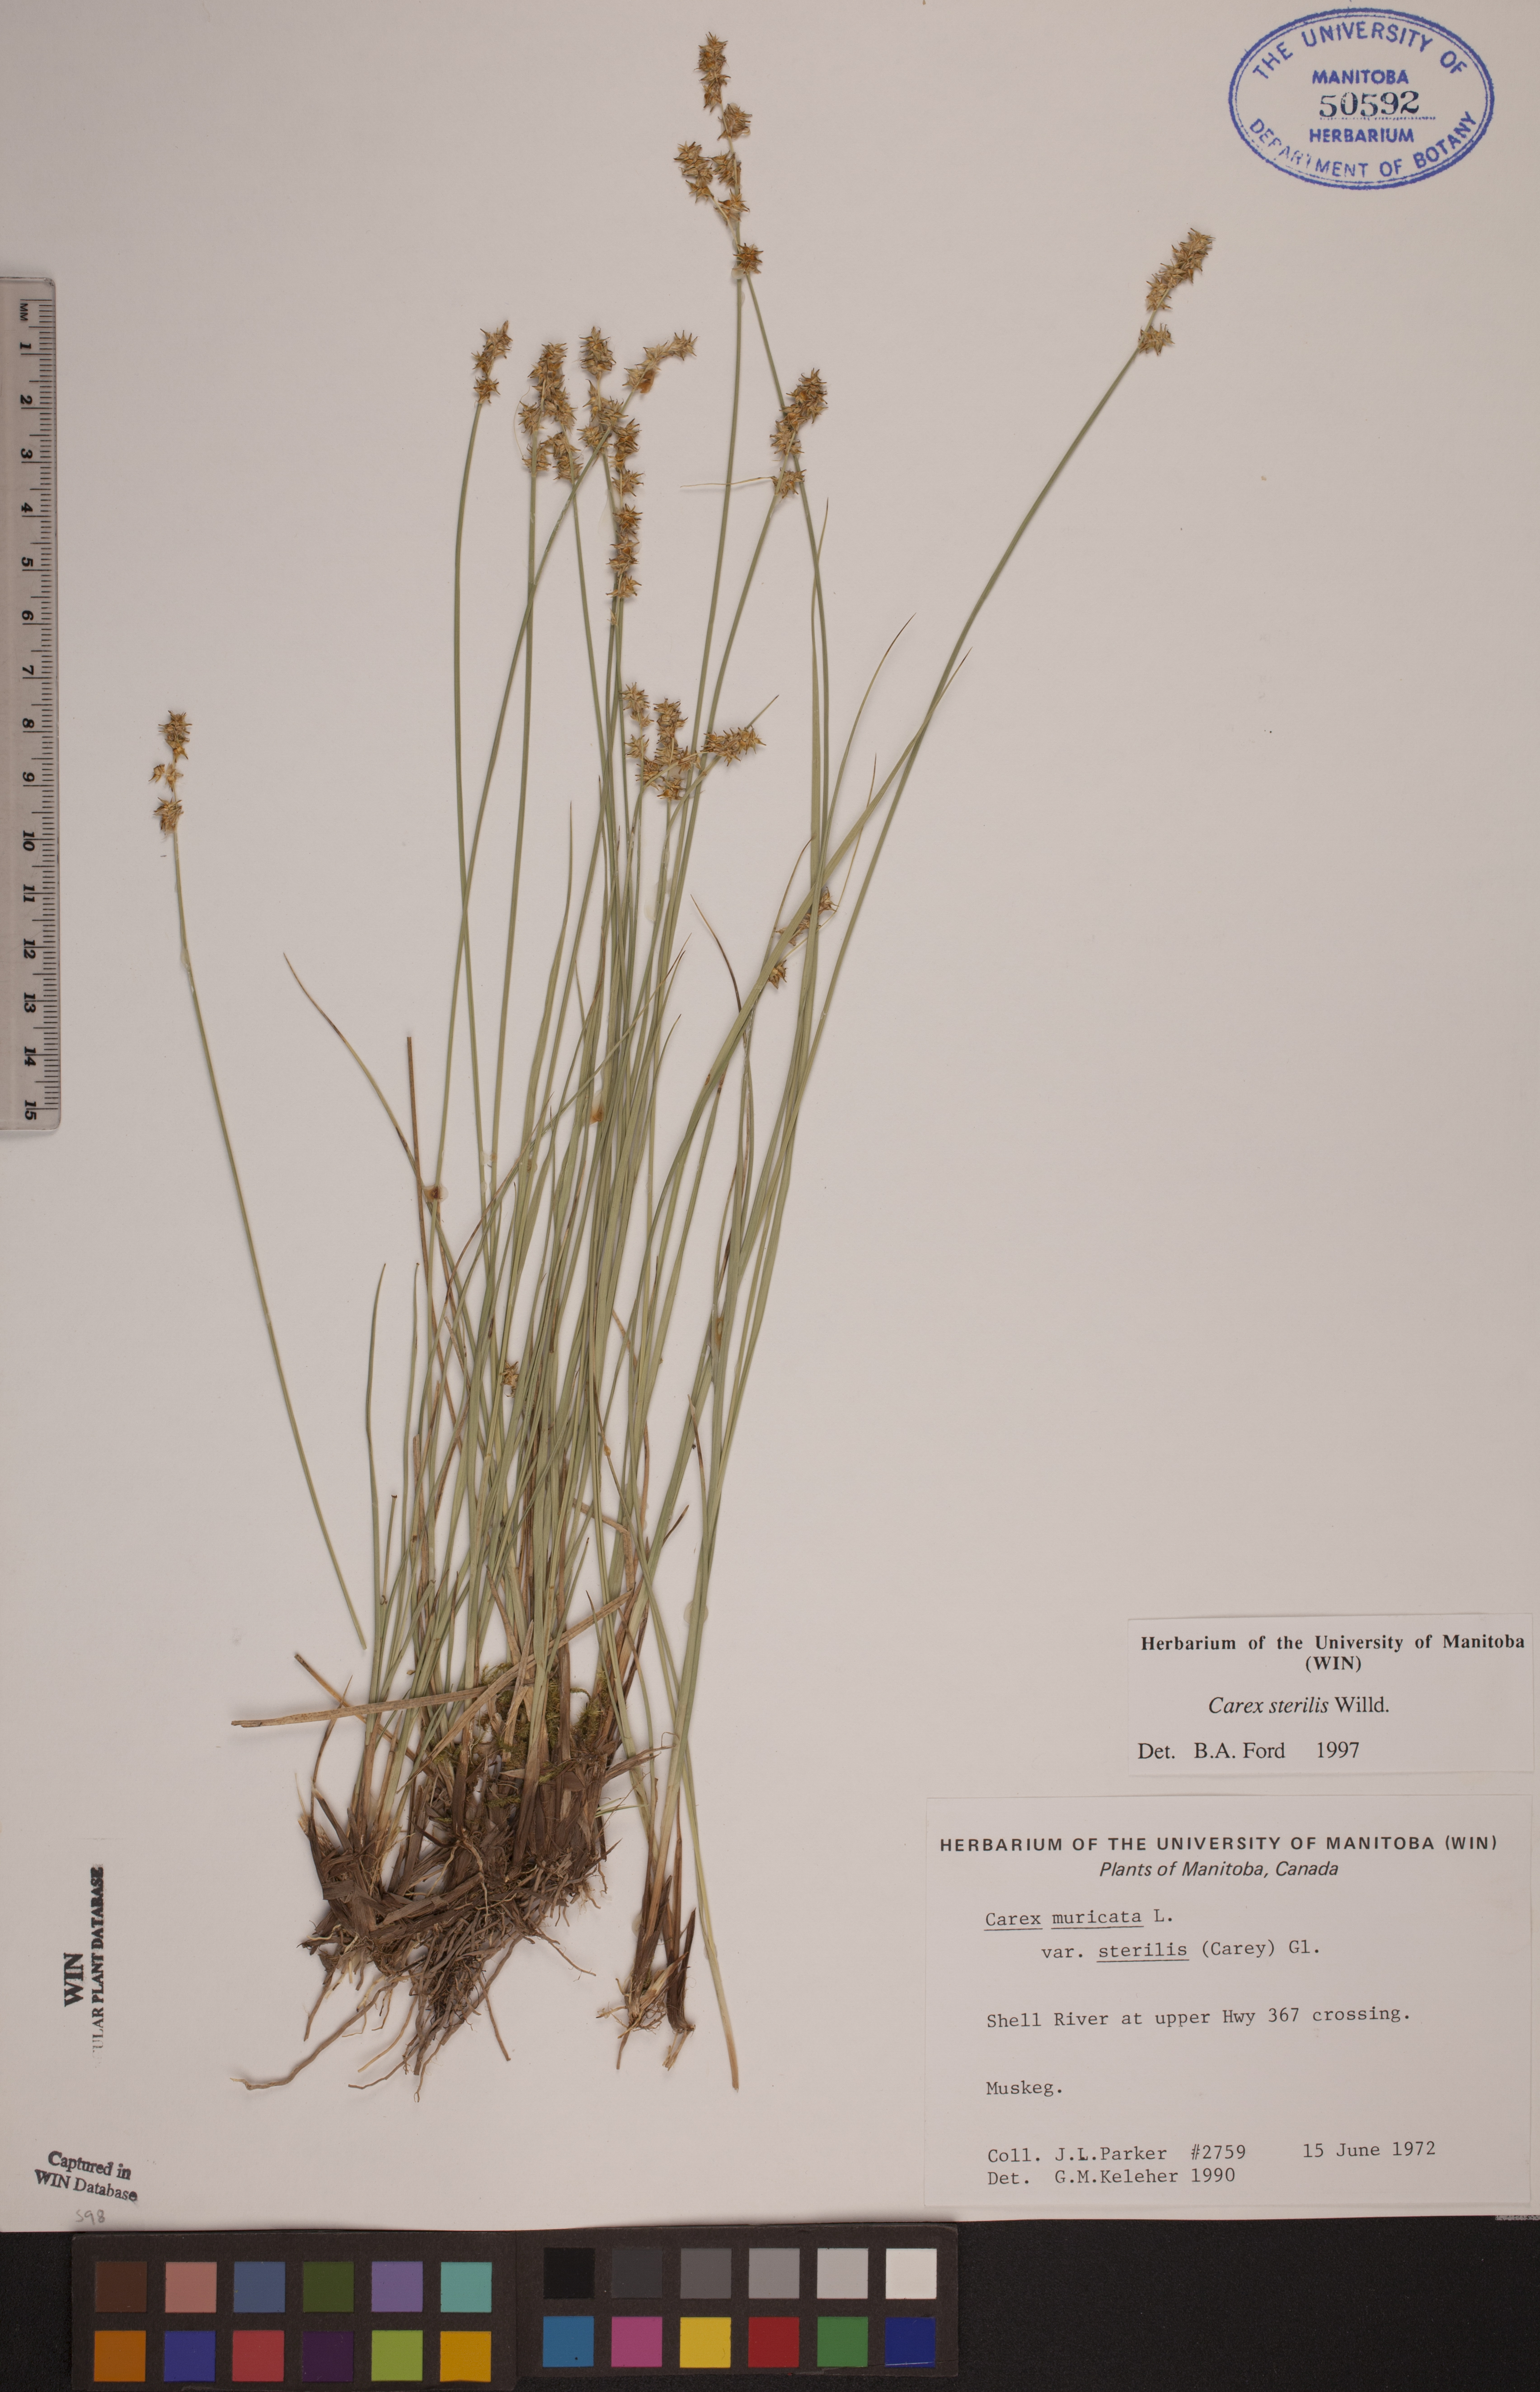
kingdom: Plantae
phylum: Tracheophyta
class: Liliopsida
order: Poales
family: Cyperaceae
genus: Carex
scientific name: Carex sterilis
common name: Dioecious sedge
